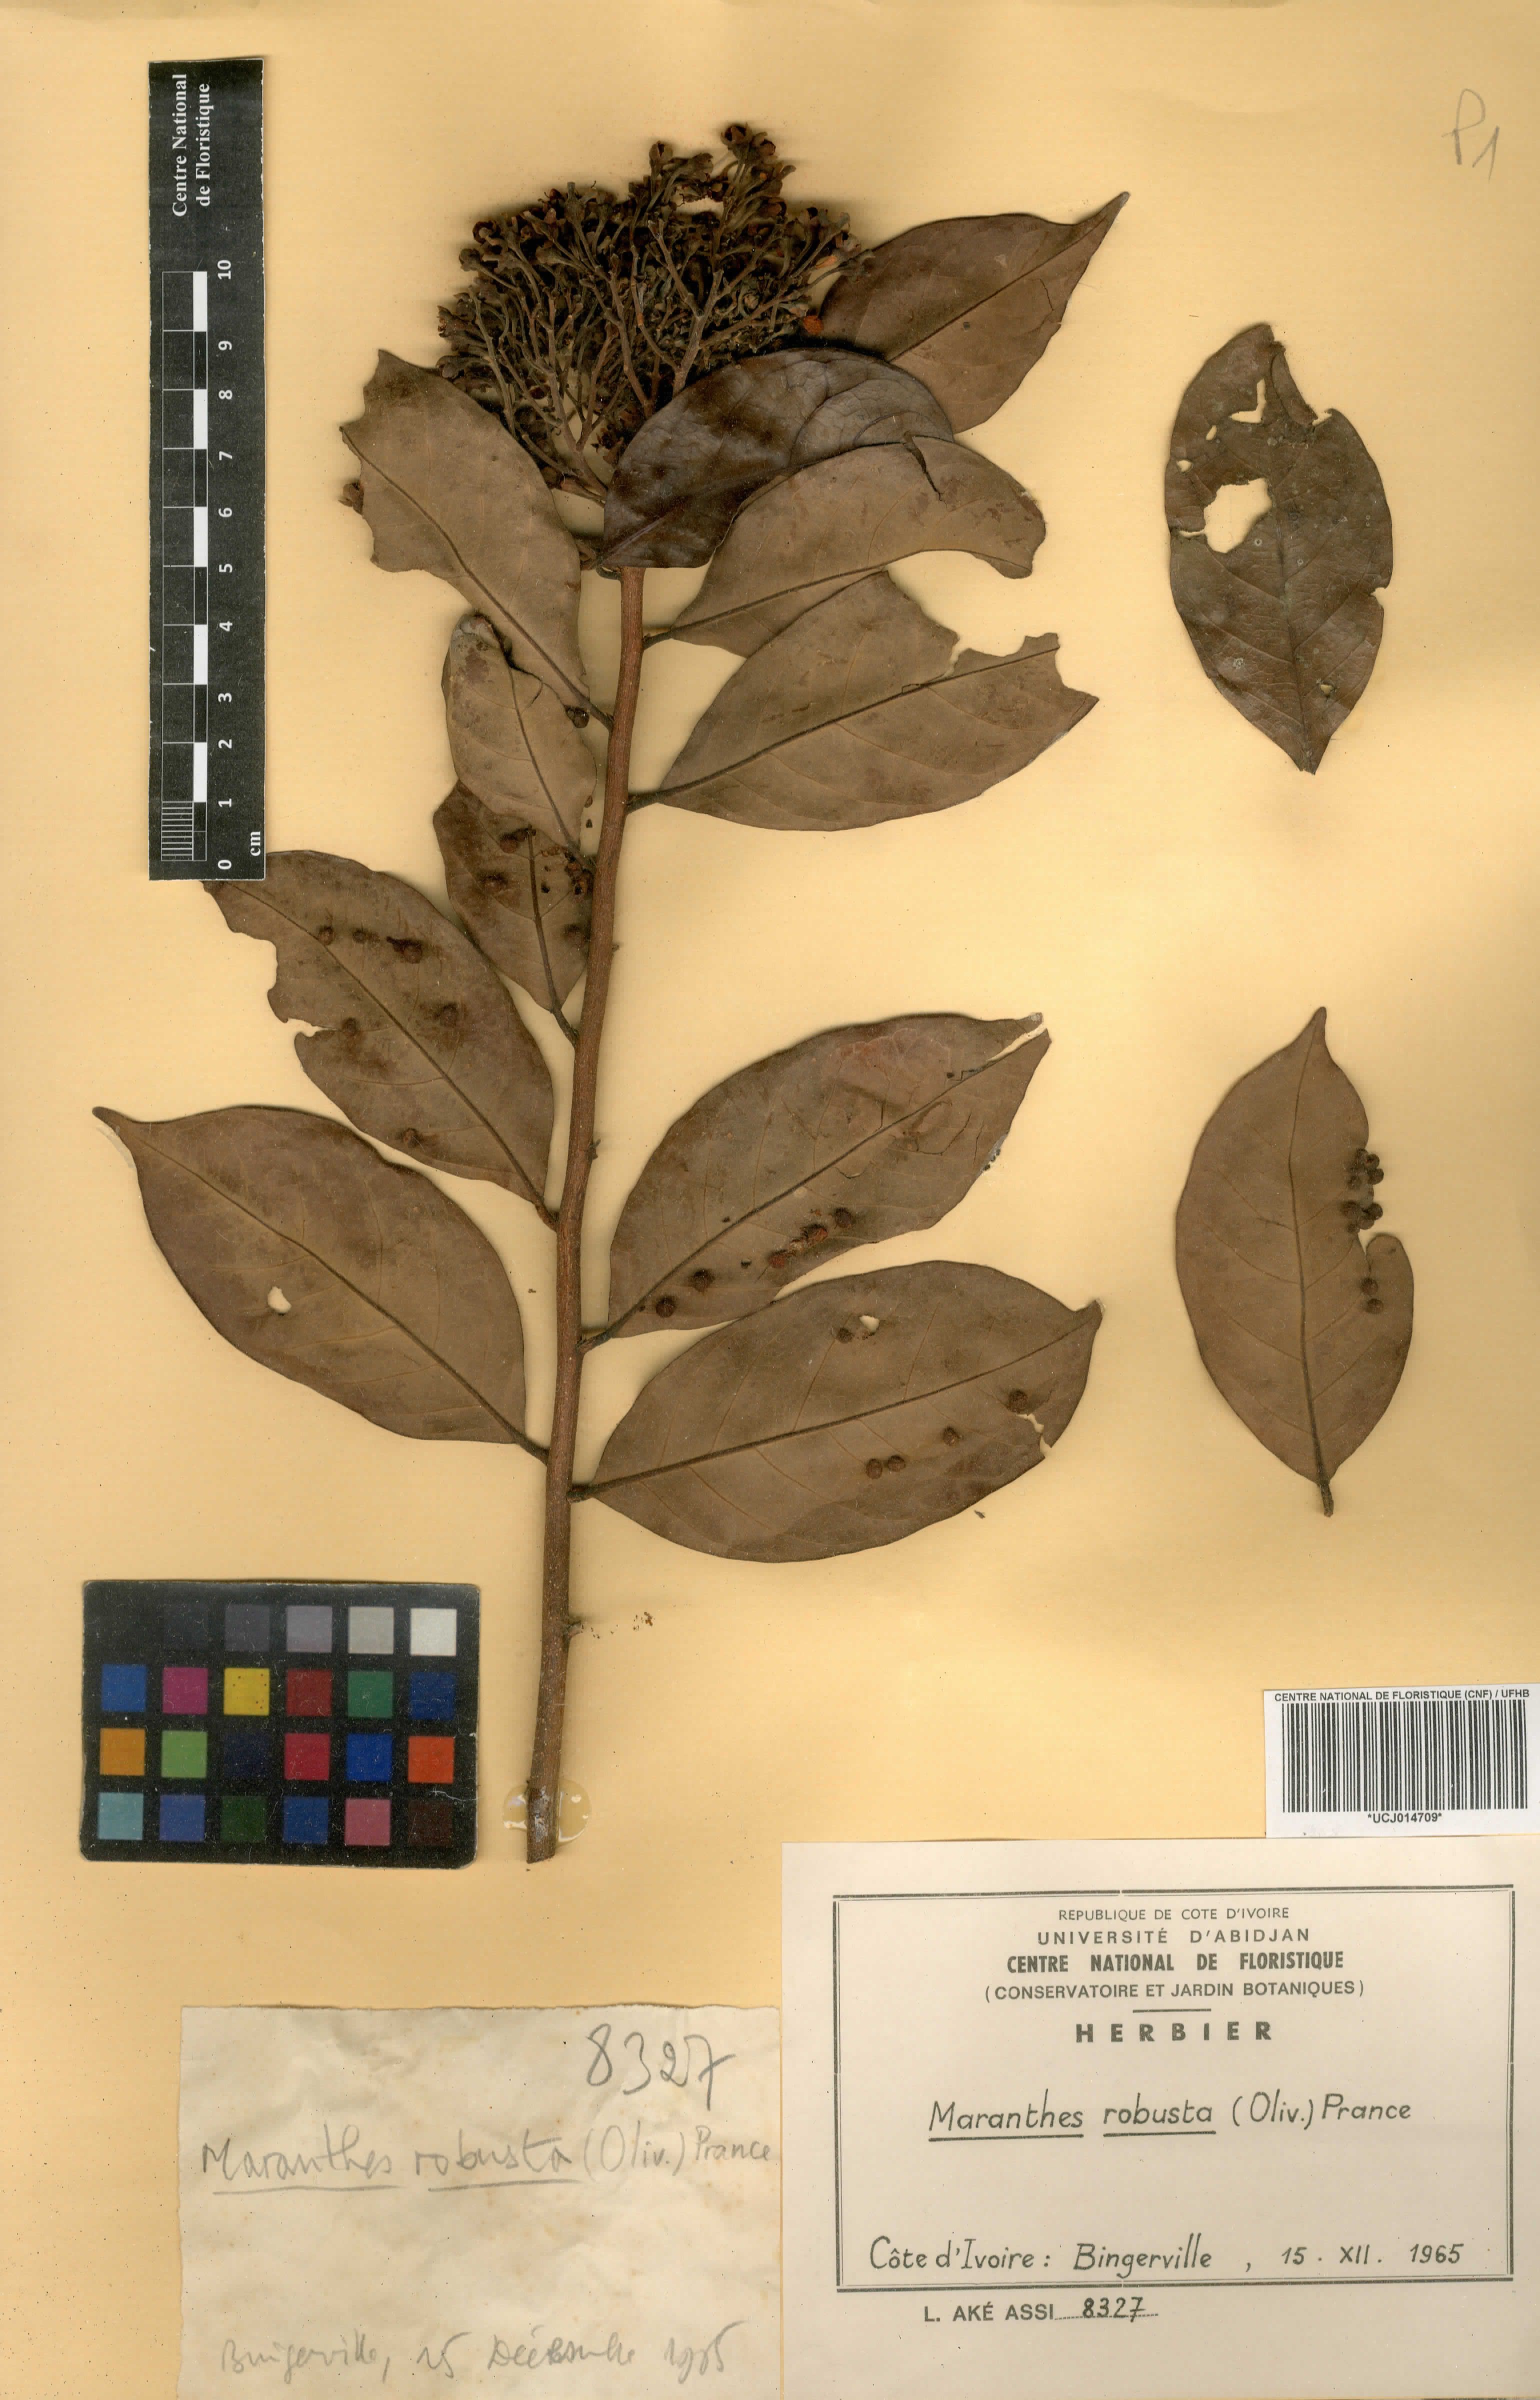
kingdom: Plantae
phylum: Tracheophyta
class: Magnoliopsida
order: Malpighiales
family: Chrysobalanaceae
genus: Maranthes
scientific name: Maranthes robusta
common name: Benin mahogany
